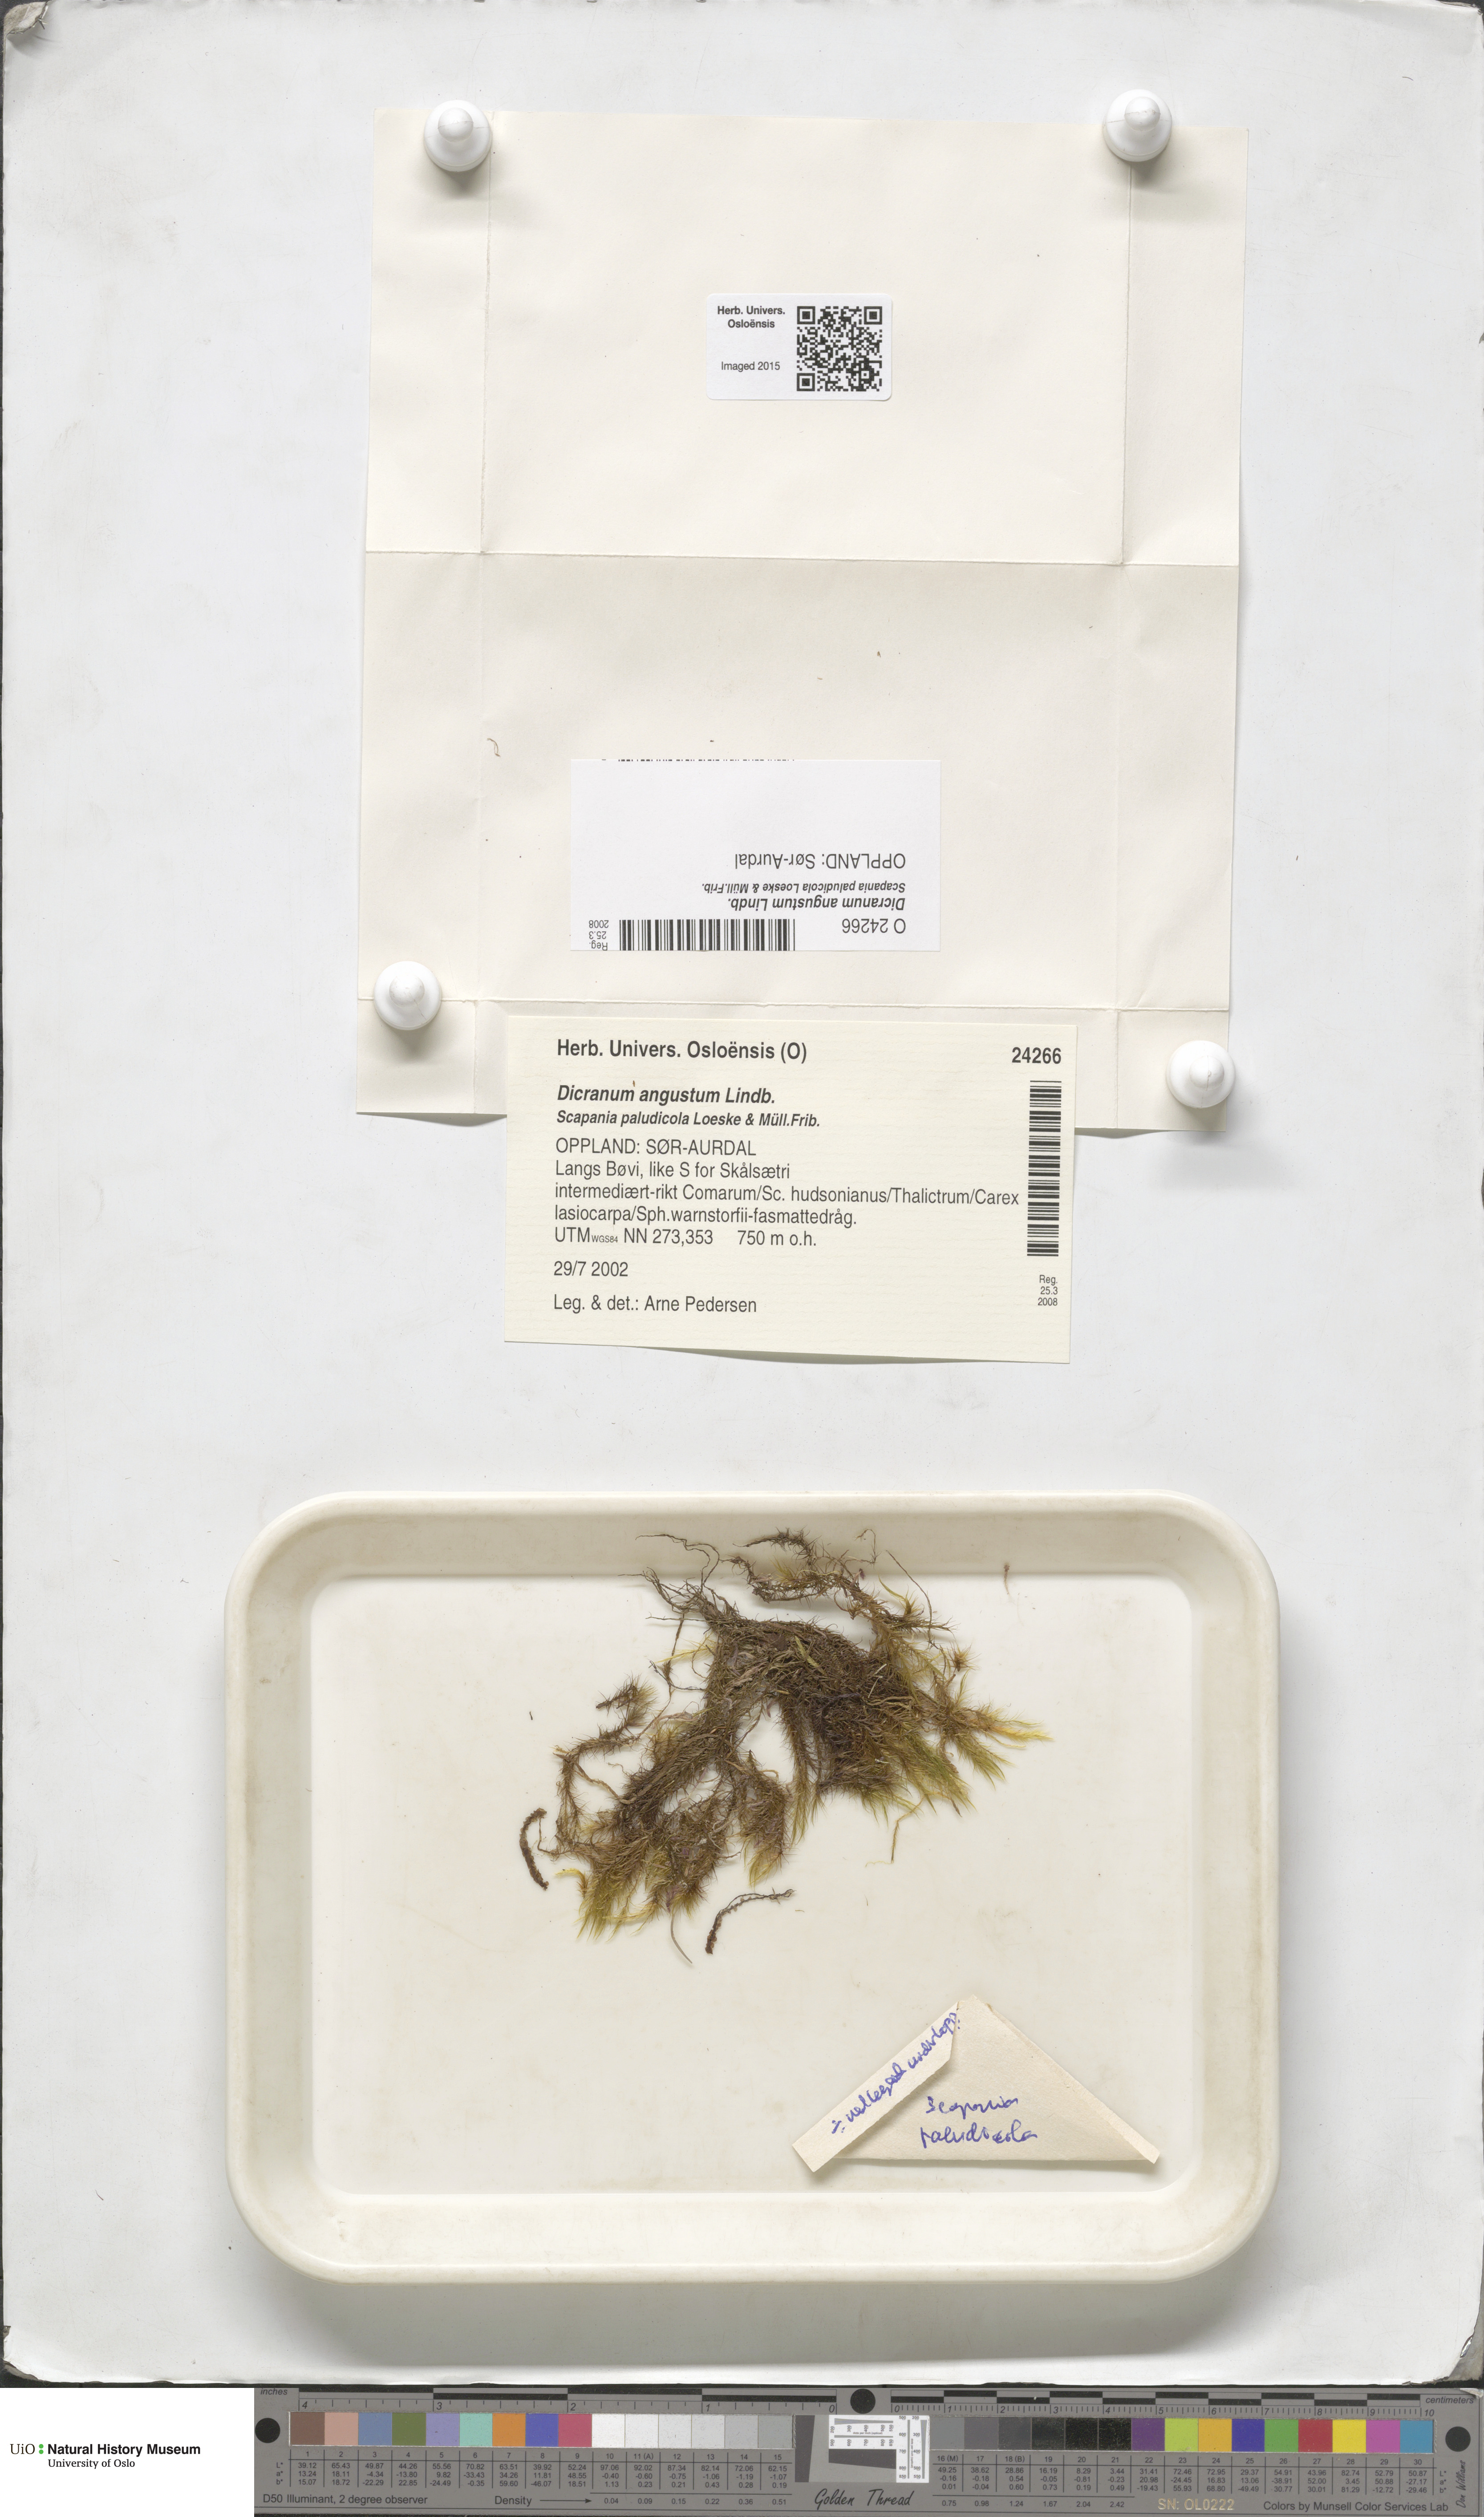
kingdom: Plantae
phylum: Bryophyta
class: Bryopsida
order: Dicranales
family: Dicranaceae
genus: Dicranum
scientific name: Dicranum spadiceum
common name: Confusing broom moss
